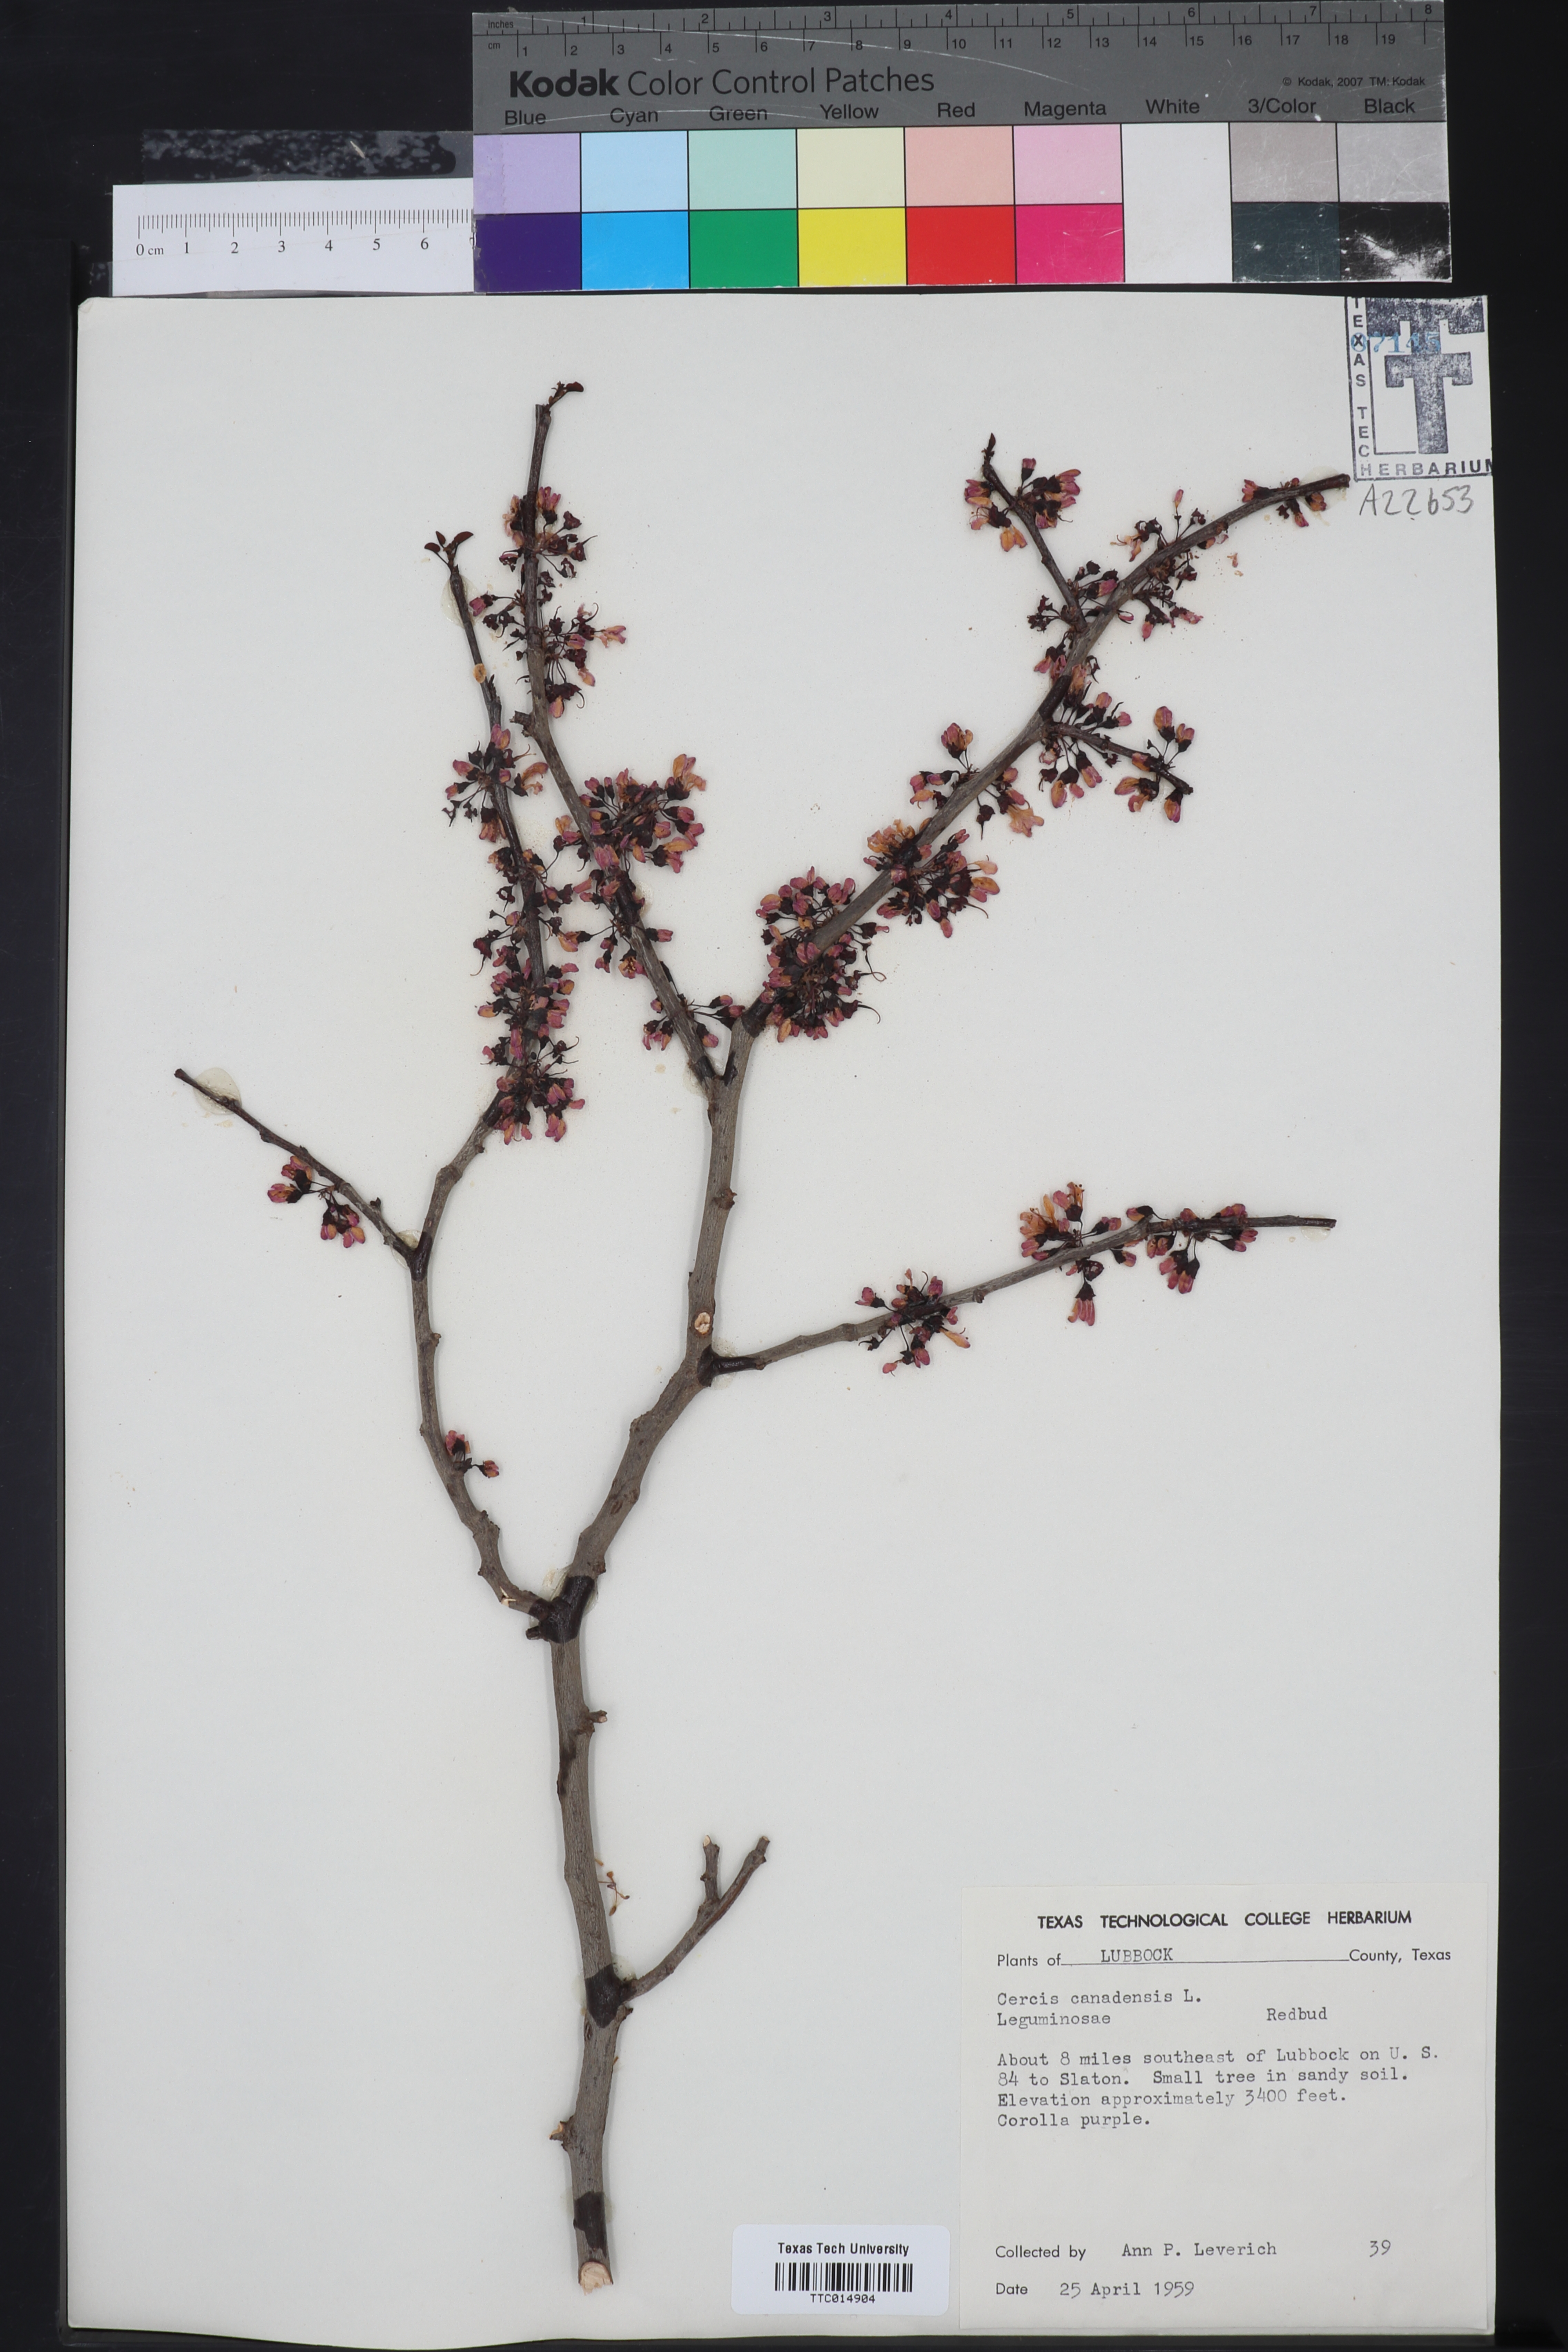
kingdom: Plantae
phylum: Tracheophyta
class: Magnoliopsida
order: Fabales
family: Fabaceae
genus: Cercis
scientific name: Cercis canadensis
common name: Eastern redbud
